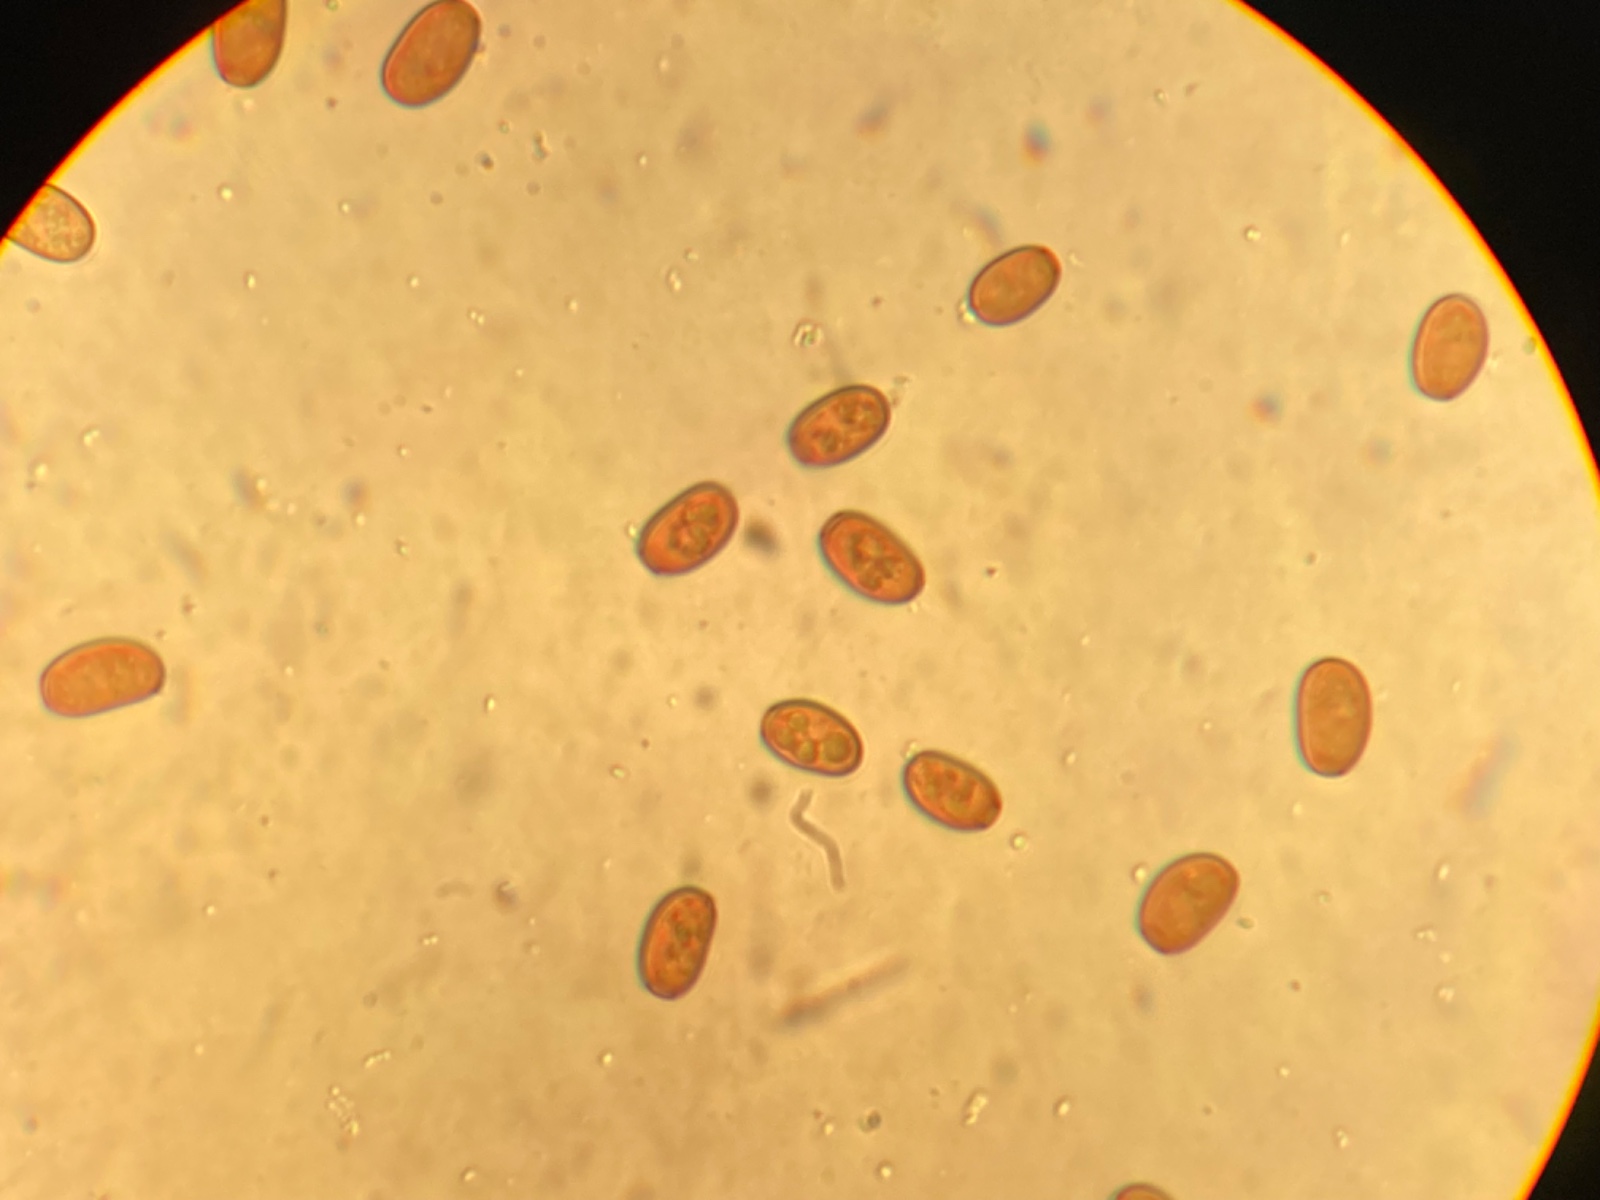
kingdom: Fungi
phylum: Basidiomycota
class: Agaricomycetes
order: Agaricales
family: Psathyrellaceae
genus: Coprinellus
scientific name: Coprinellus radians
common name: grynet blækhat
